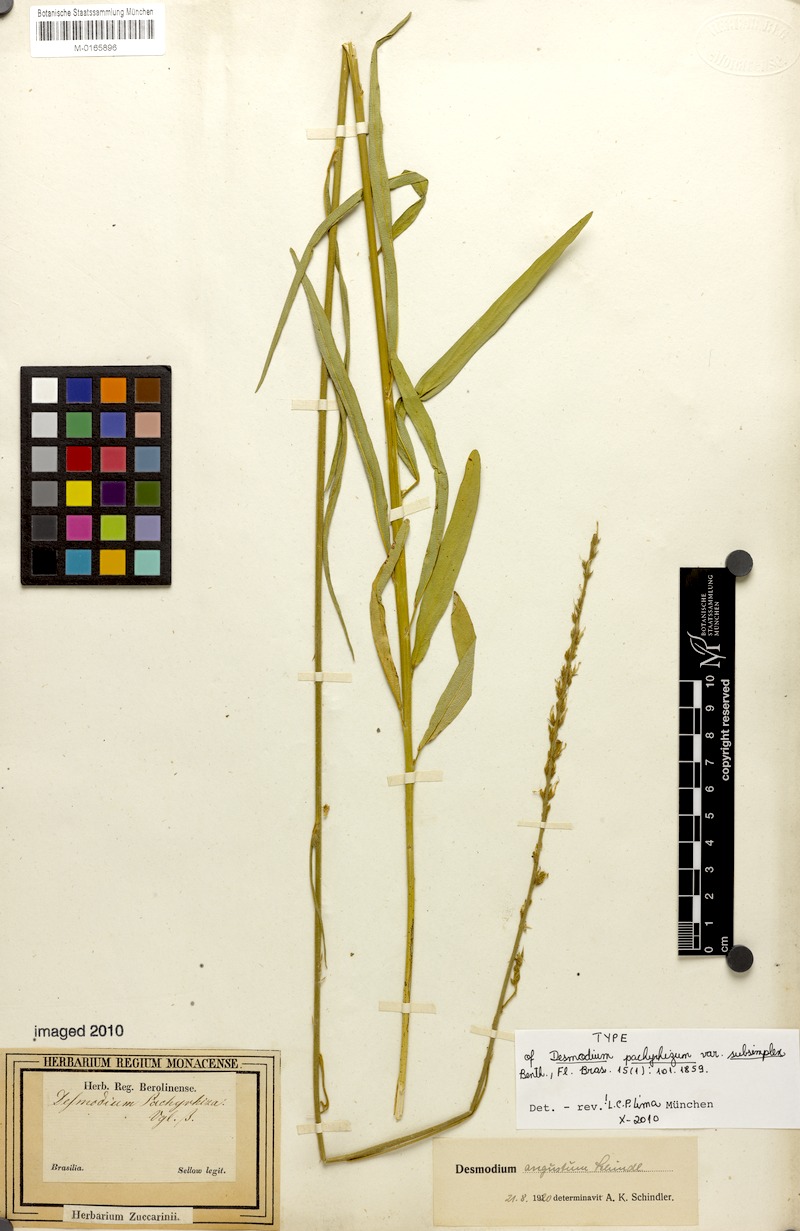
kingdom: Plantae
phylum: Tracheophyta
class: Magnoliopsida
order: Fabales
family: Fabaceae
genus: Desmodium
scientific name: Desmodium polygaloides
